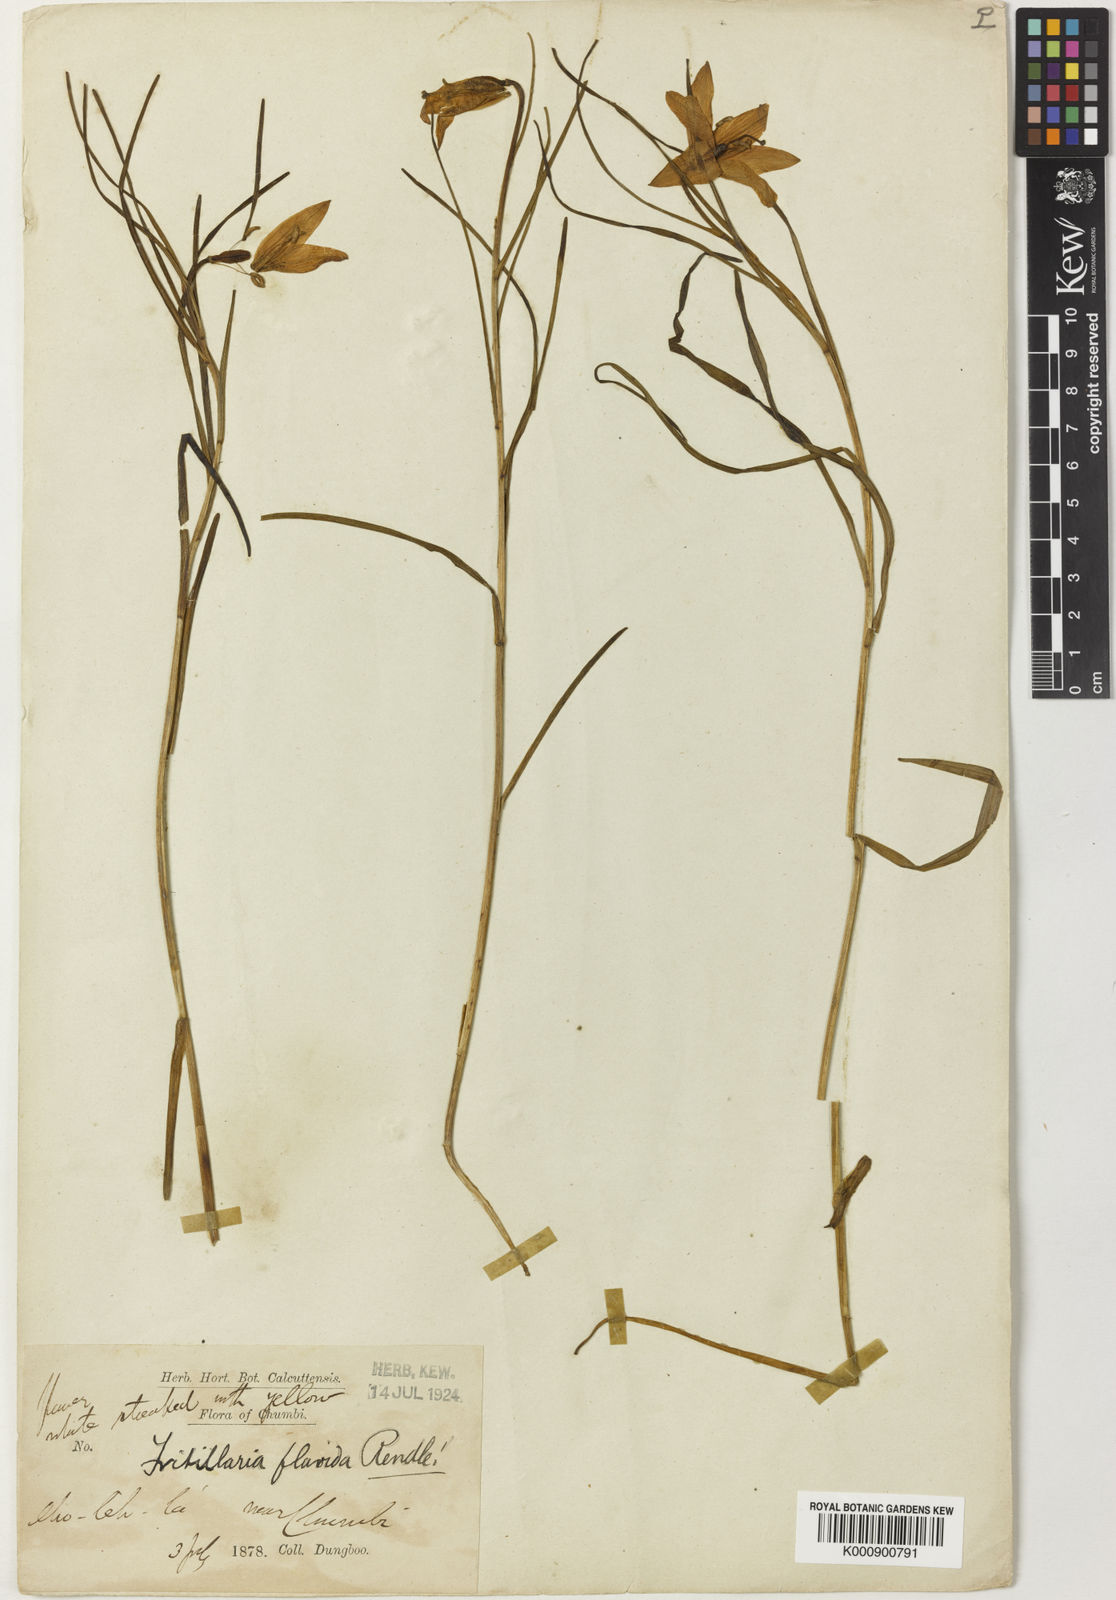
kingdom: Plantae
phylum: Tracheophyta
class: Liliopsida
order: Liliales
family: Liliaceae
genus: Lilium
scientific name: Lilium nanum
